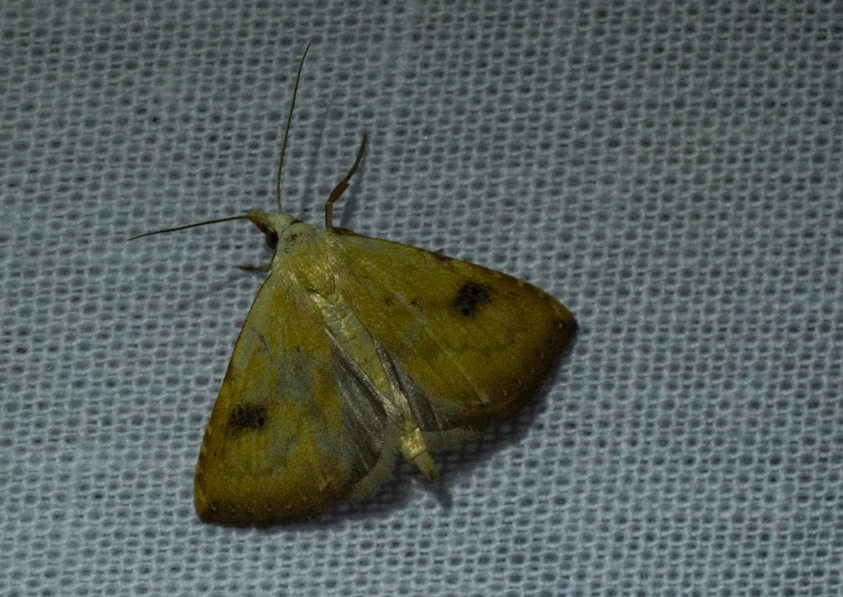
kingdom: Animalia
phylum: Arthropoda
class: Insecta
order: Lepidoptera
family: Erebidae
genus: Rivula
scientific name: Rivula sericealis
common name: Lille å-ugle
